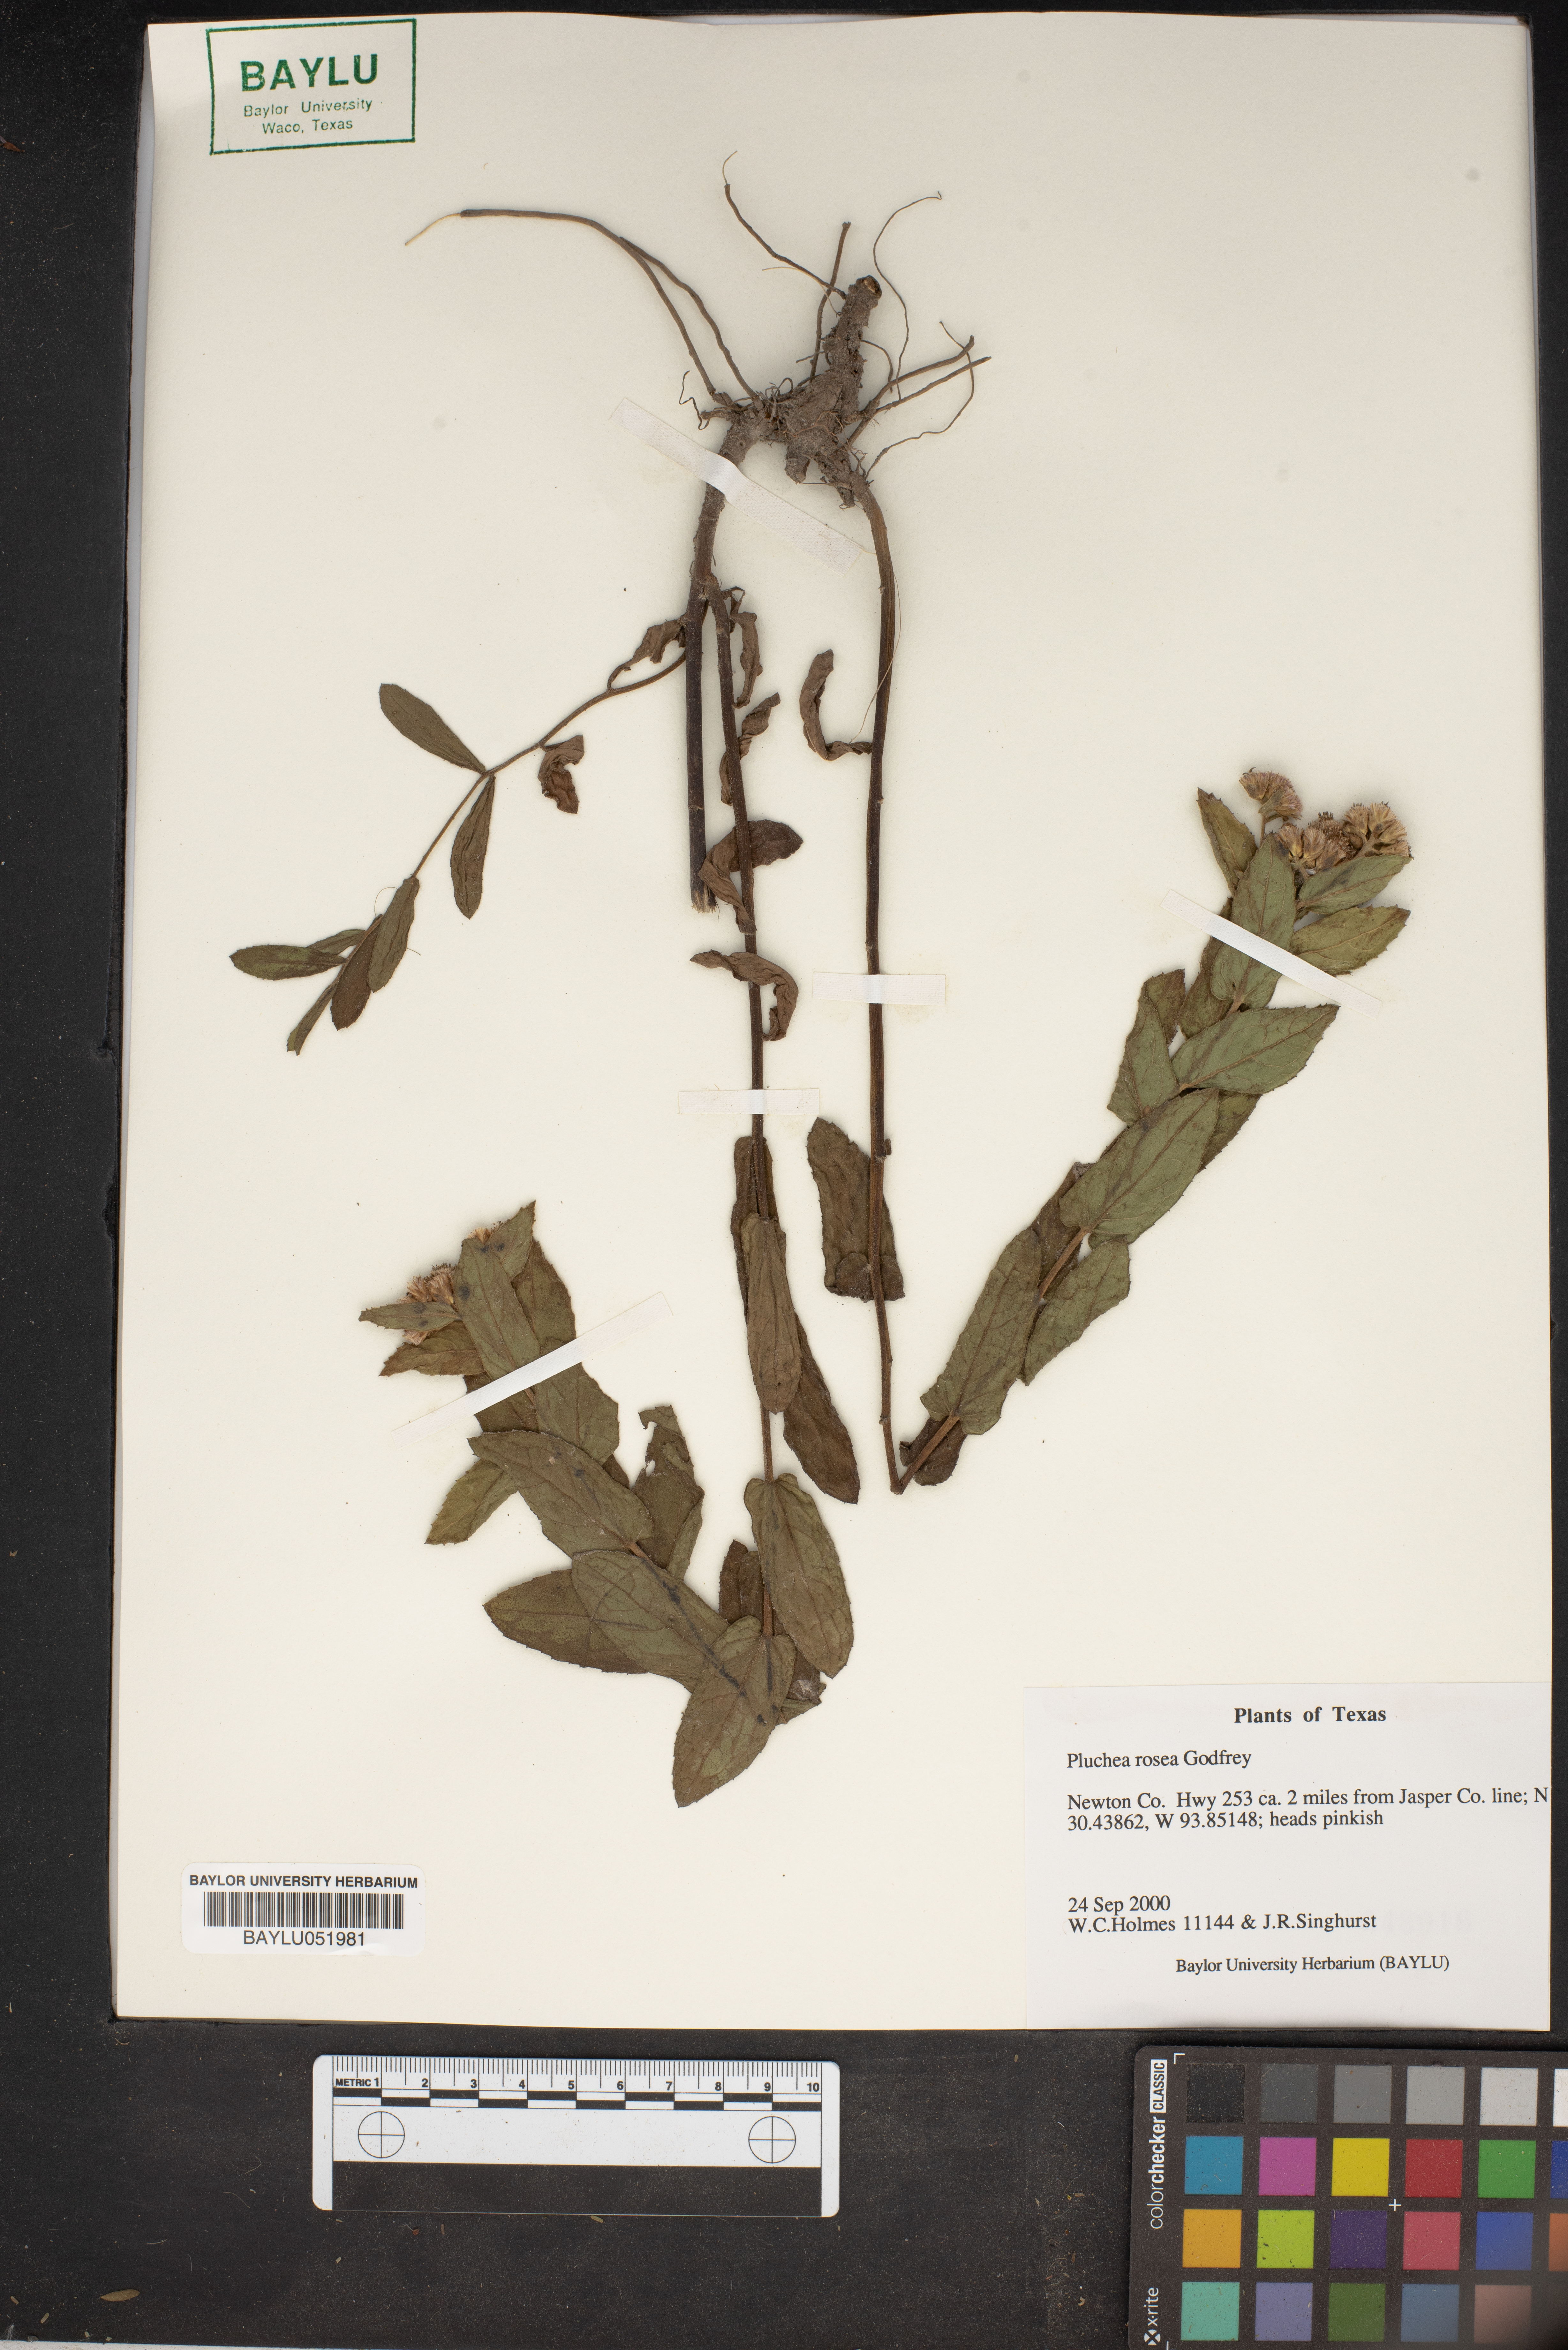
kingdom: Plantae
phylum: Tracheophyta
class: Magnoliopsida
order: Asterales
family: Asteraceae
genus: Pluchea
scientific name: Pluchea baccharis
